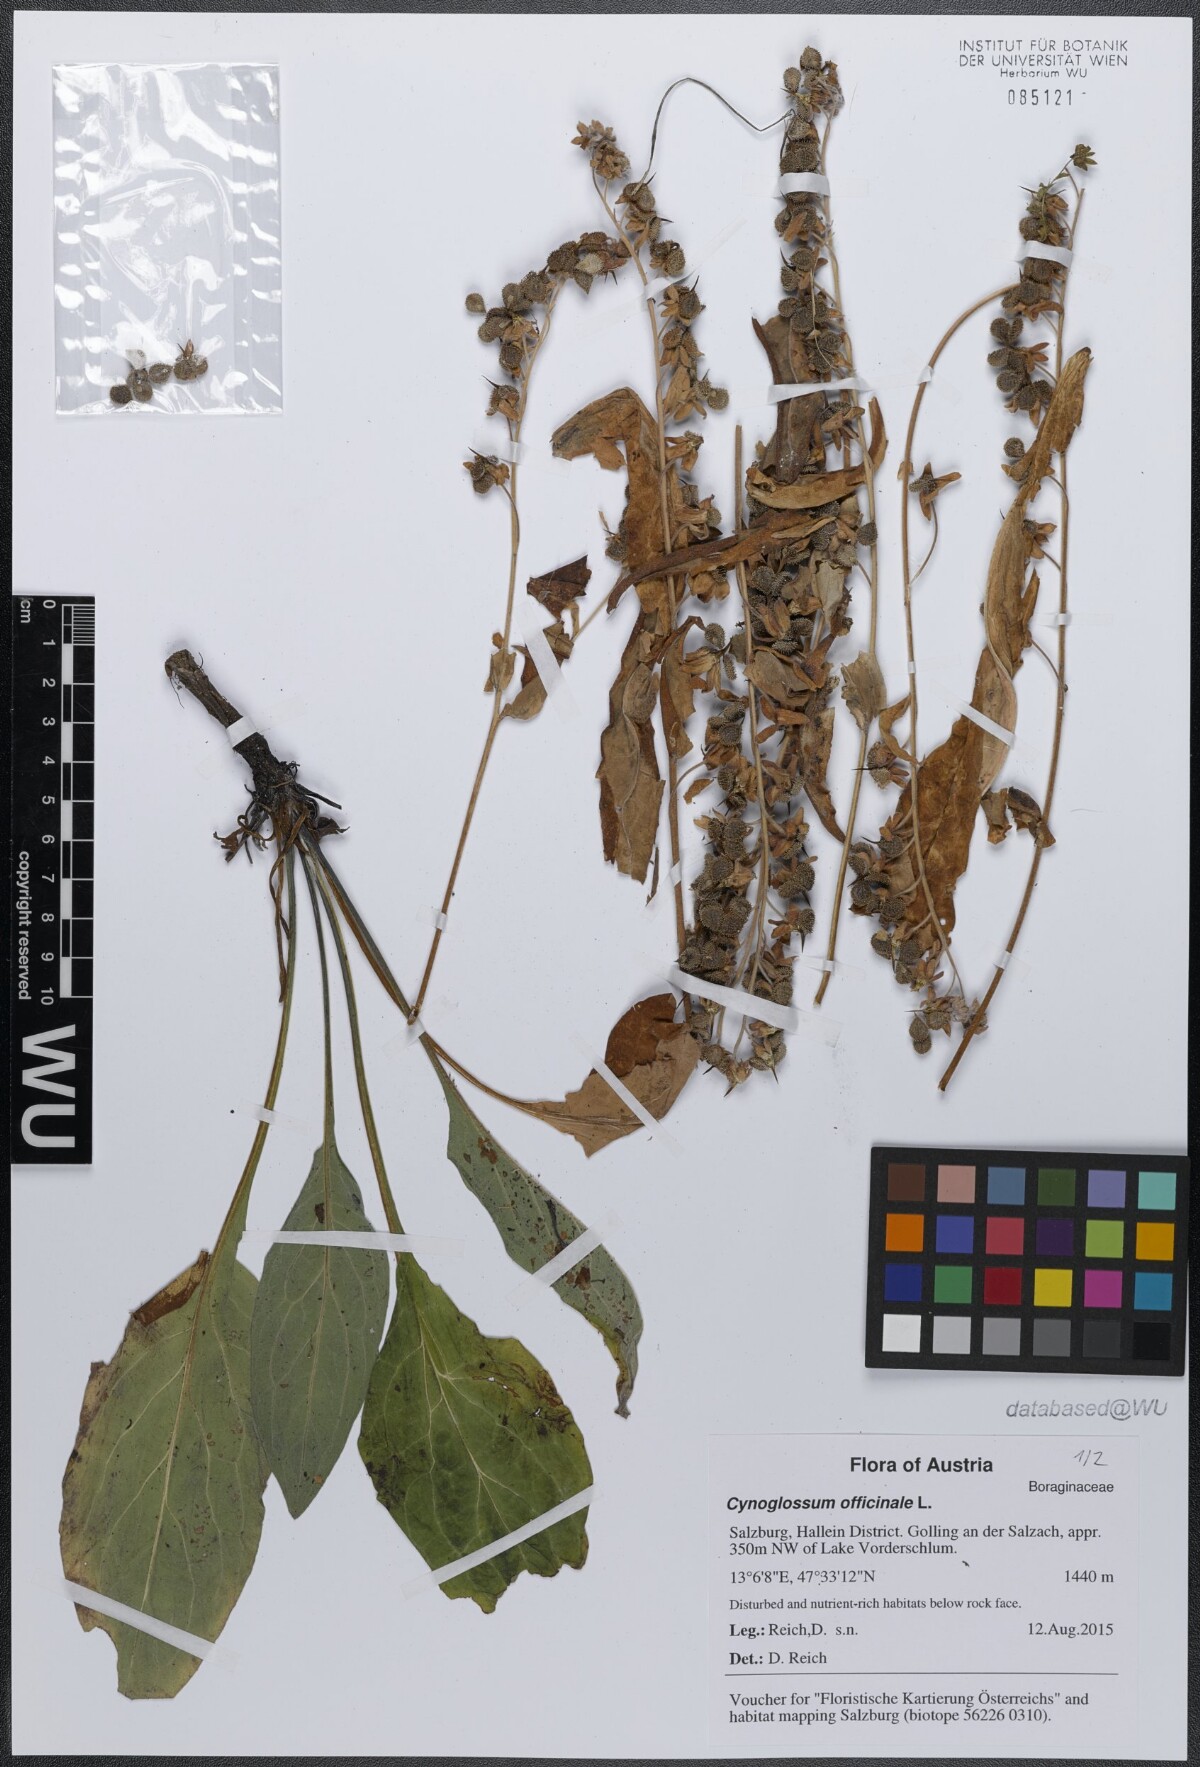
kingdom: Plantae
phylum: Tracheophyta
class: Magnoliopsida
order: Boraginales
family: Boraginaceae
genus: Cynoglossum
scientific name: Cynoglossum officinale
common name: Hound's-tongue
